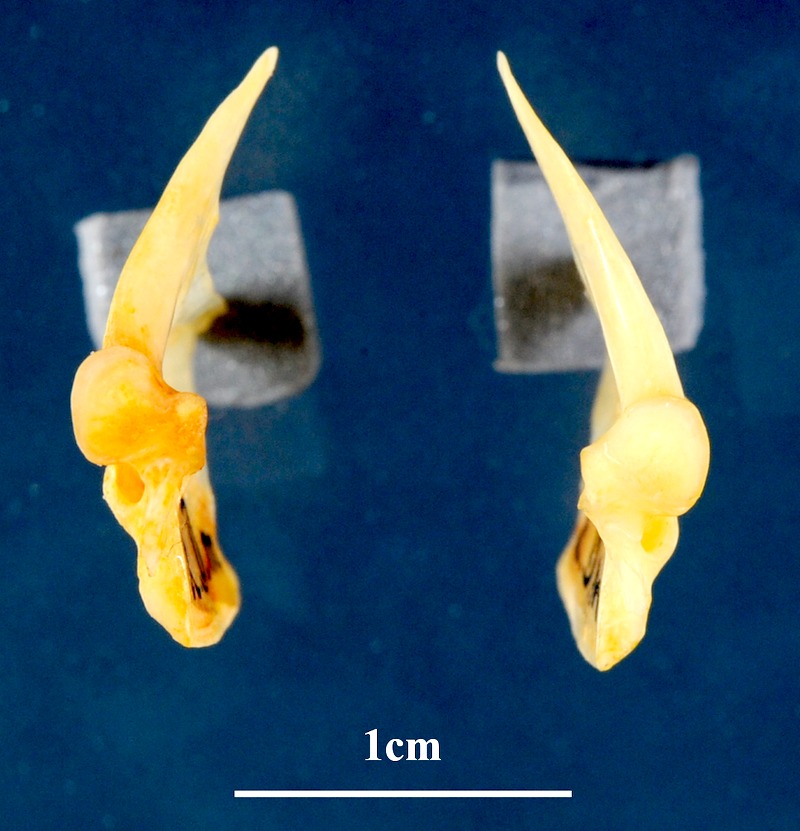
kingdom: Animalia
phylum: Chordata
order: Perciformes
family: Sparidae
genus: Dentex
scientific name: Dentex macrophthalmus
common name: Large-eyed dentex
